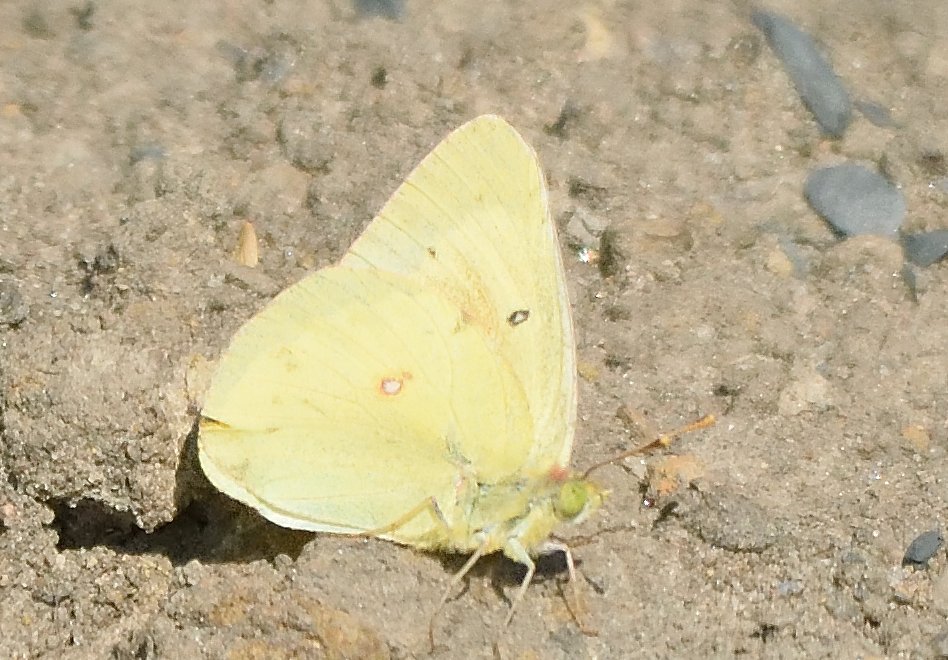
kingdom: Animalia
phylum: Arthropoda
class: Insecta
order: Lepidoptera
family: Pieridae
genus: Colias
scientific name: Colias philodice
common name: Clouded Sulphur
